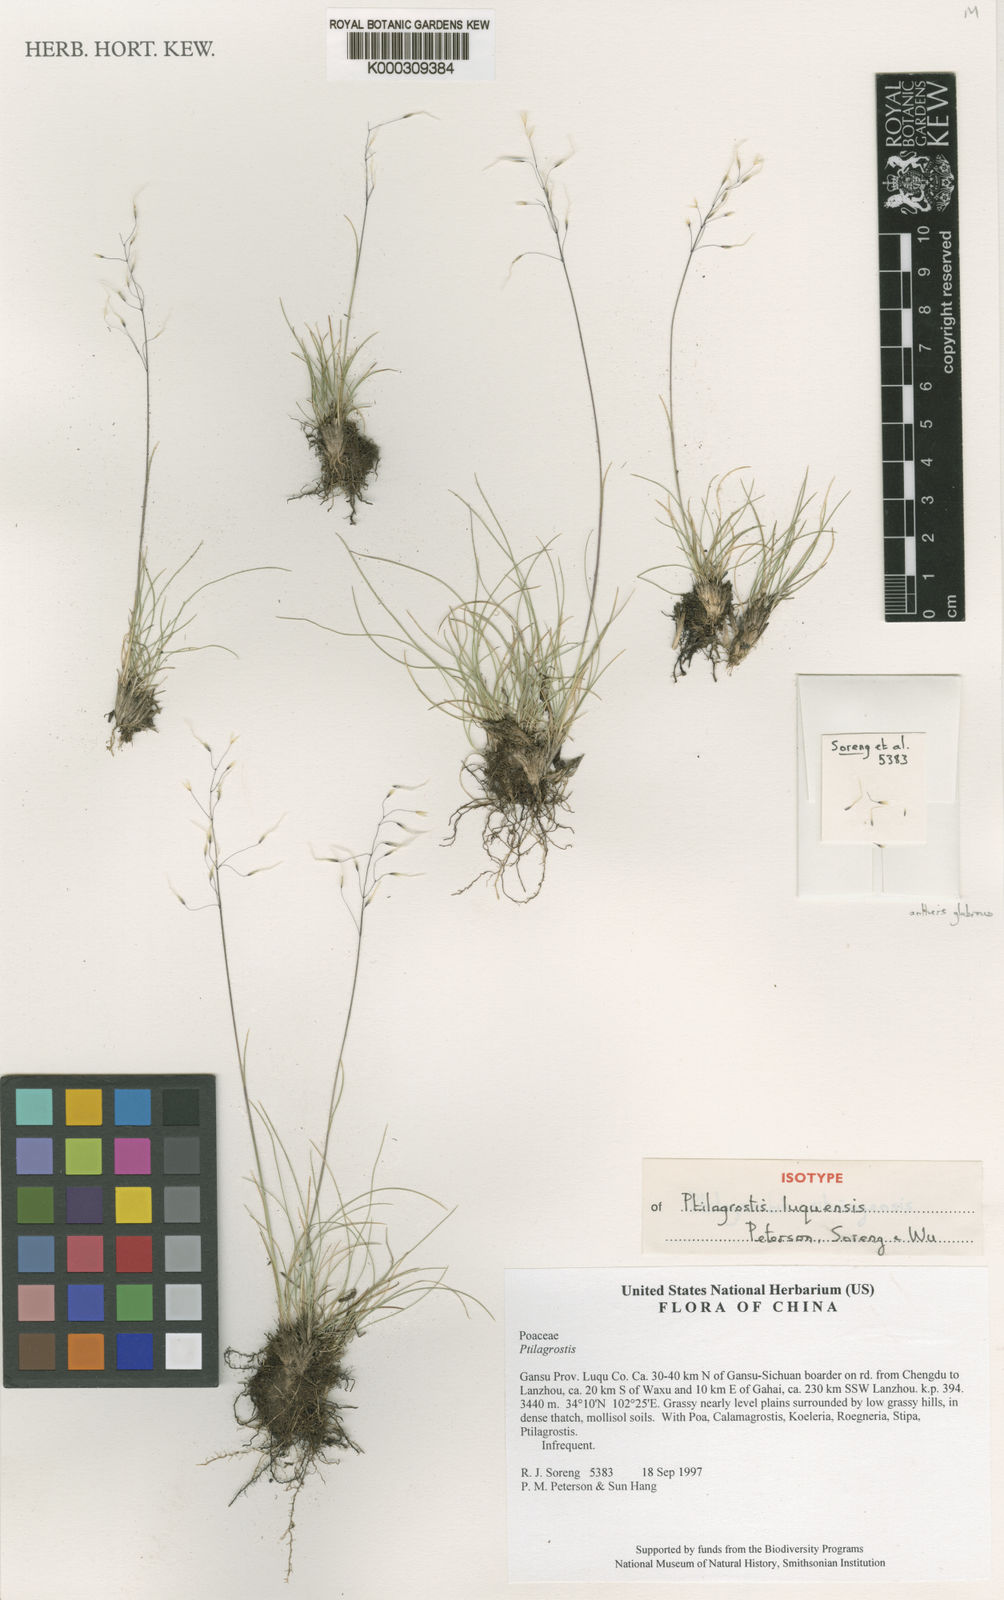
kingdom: Plantae
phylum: Tracheophyta
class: Liliopsida
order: Poales
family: Poaceae
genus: Ptilagrostis
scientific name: Ptilagrostis
